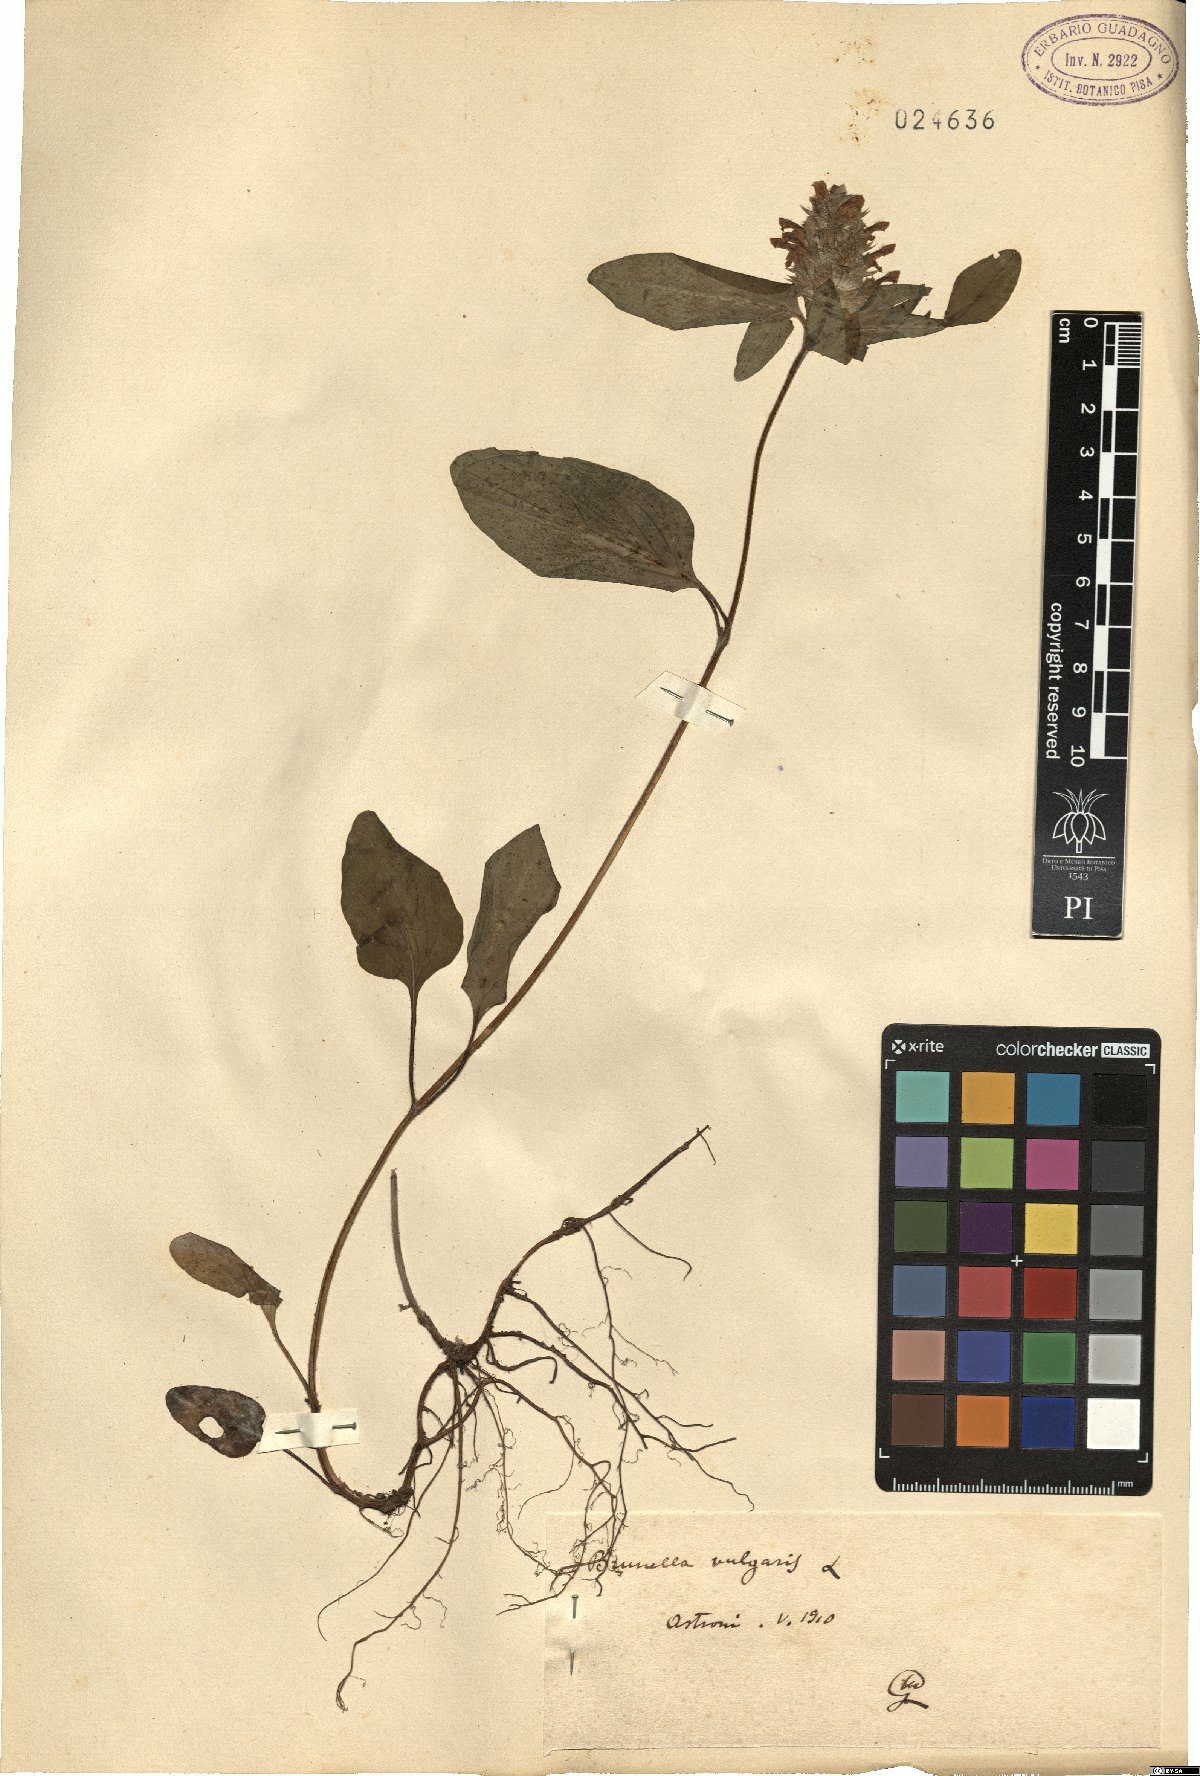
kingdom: Plantae
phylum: Tracheophyta
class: Magnoliopsida
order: Lamiales
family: Lamiaceae
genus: Prunella
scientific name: Prunella vulgaris
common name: Heal-all
